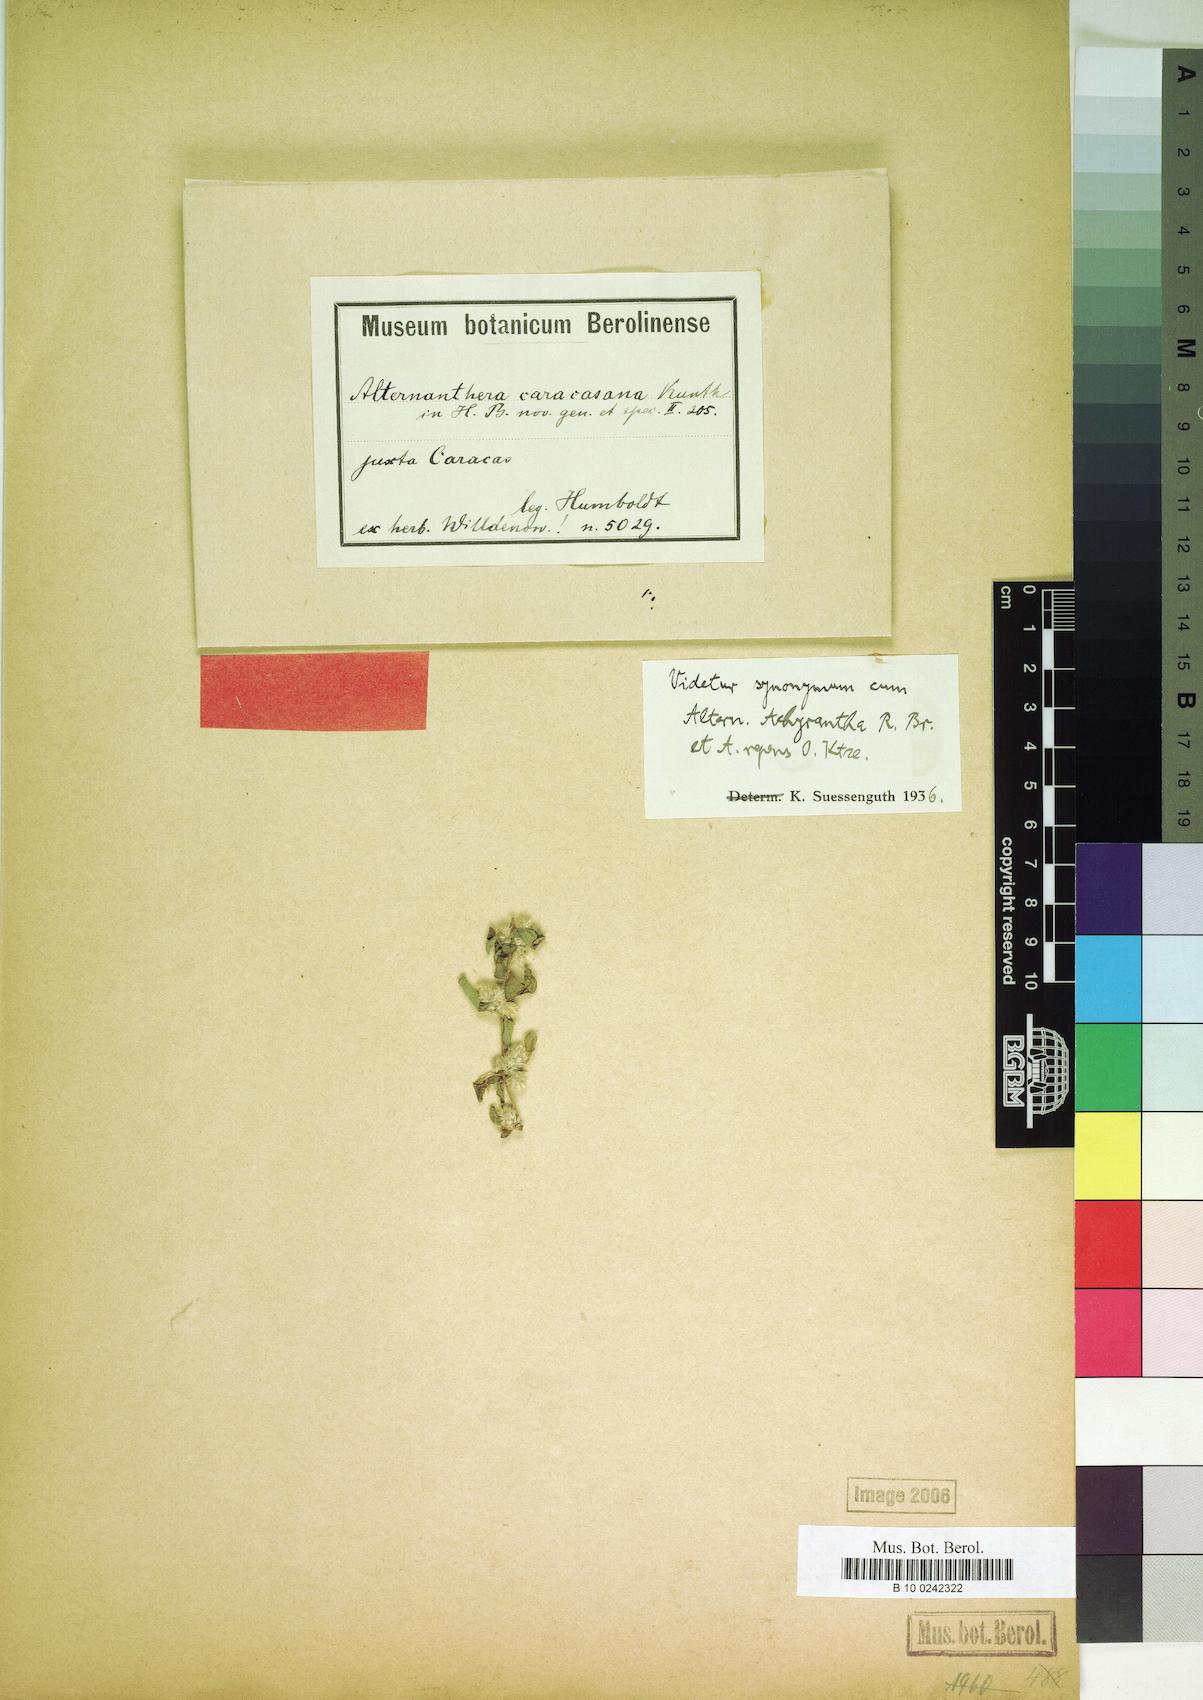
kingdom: Plantae
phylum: Tracheophyta
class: Magnoliopsida
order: Caryophyllales
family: Amaranthaceae
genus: Alternanthera
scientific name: Alternanthera caracasana
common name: Washerwoman
